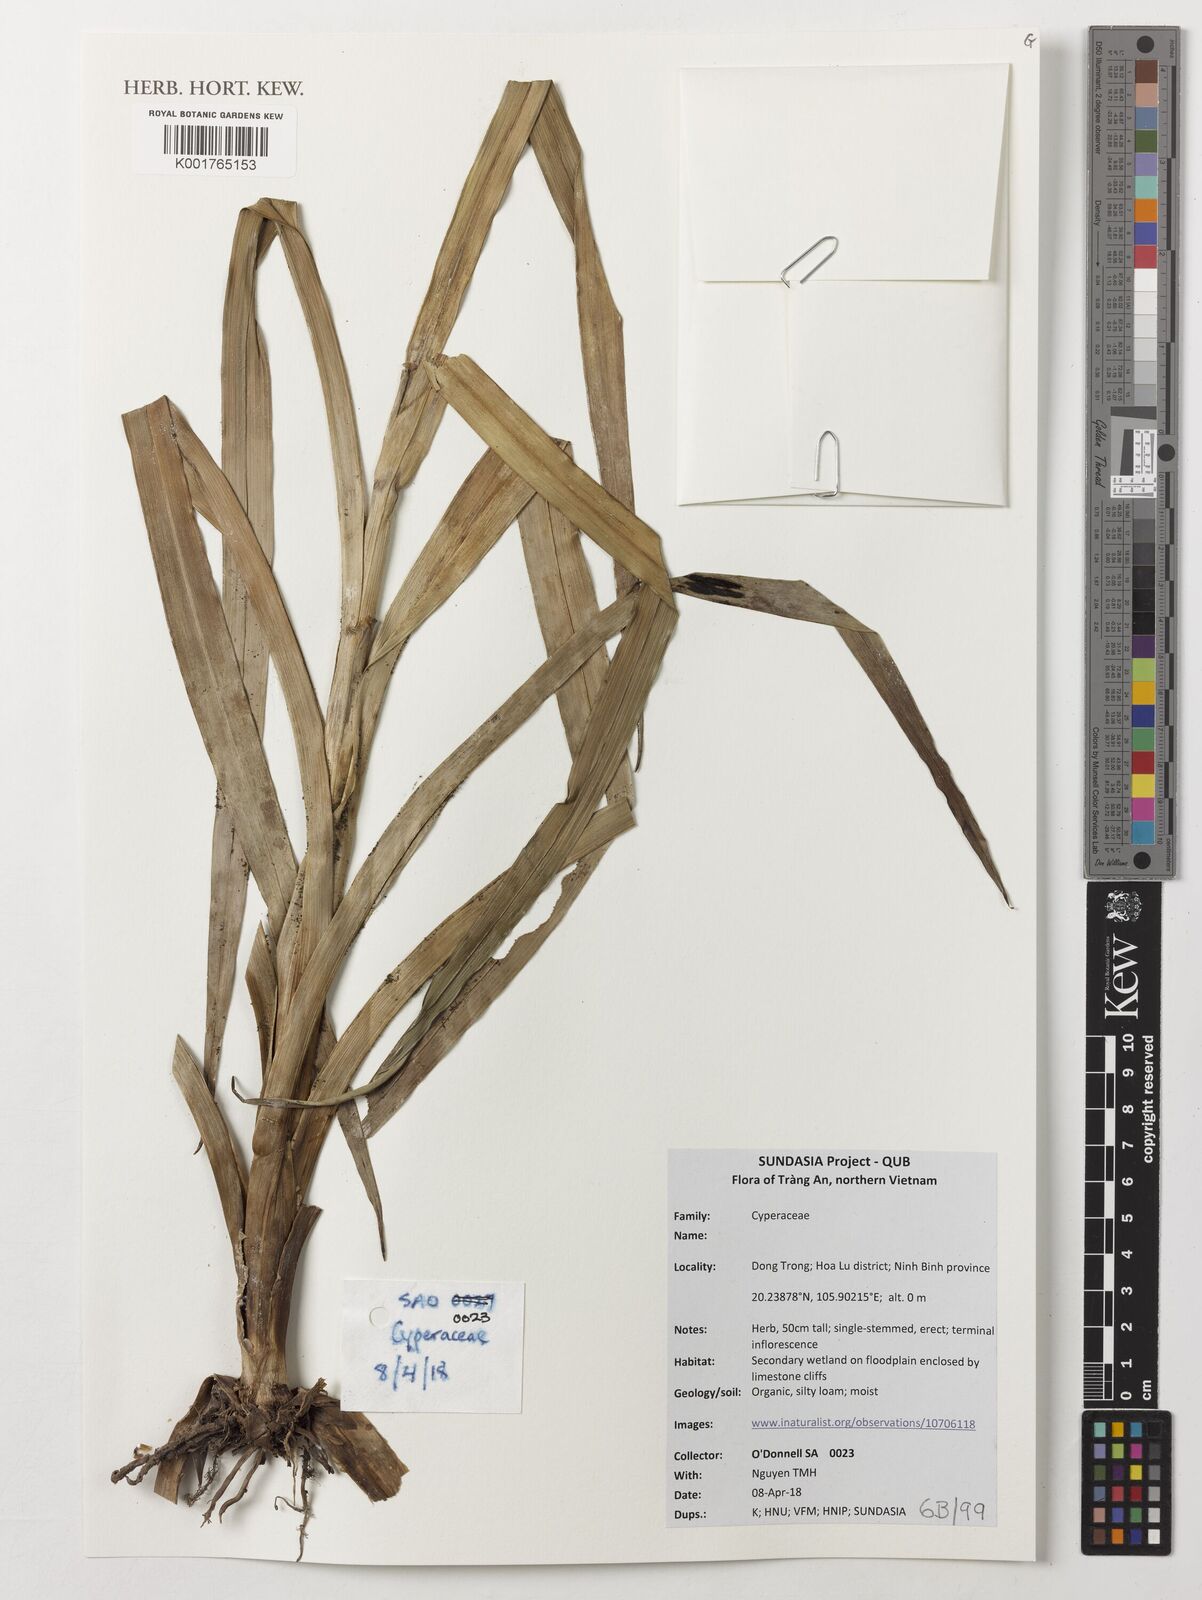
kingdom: Plantae
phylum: Tracheophyta
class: Liliopsida
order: Poales
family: Cyperaceae
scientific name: Cyperaceae
